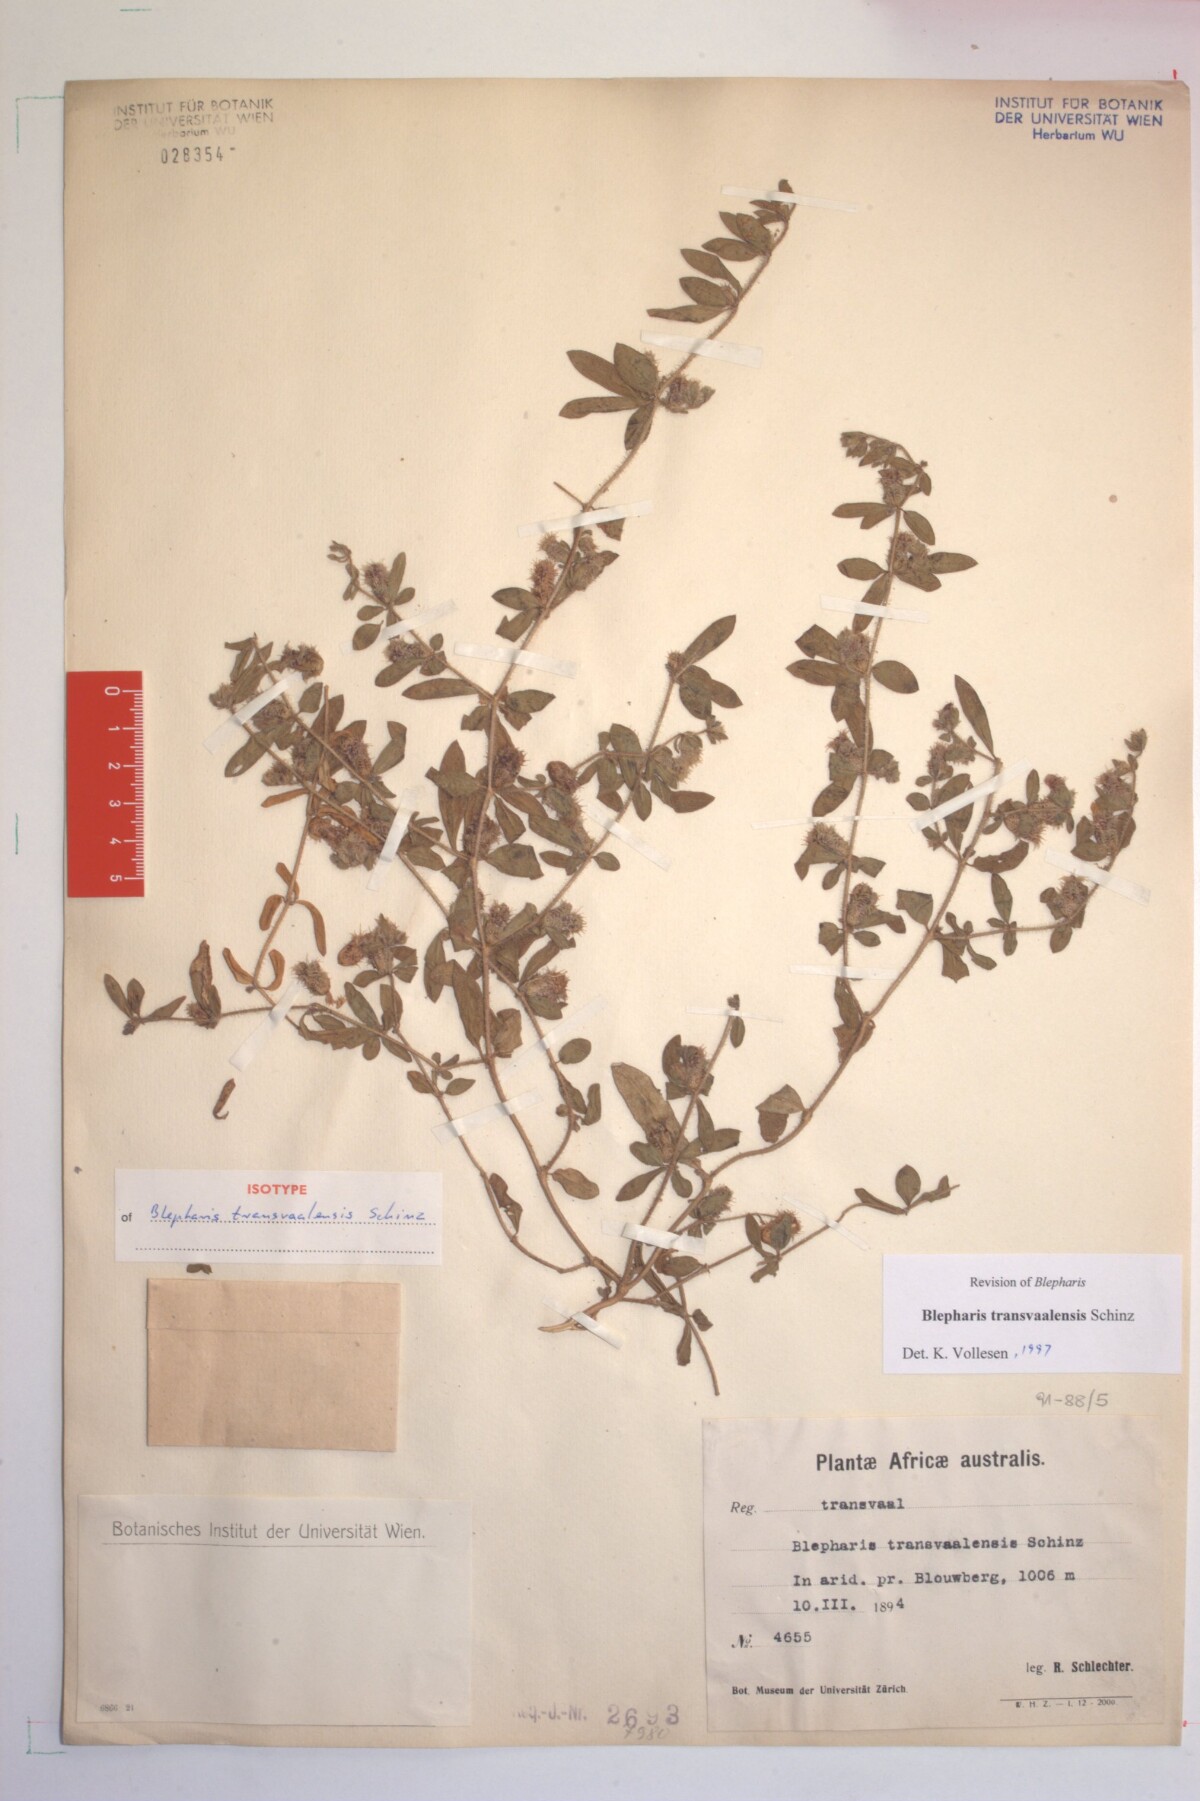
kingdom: Plantae
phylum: Tracheophyta
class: Magnoliopsida
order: Lamiales
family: Acanthaceae
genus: Blepharis
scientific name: Blepharis transvaalensis
